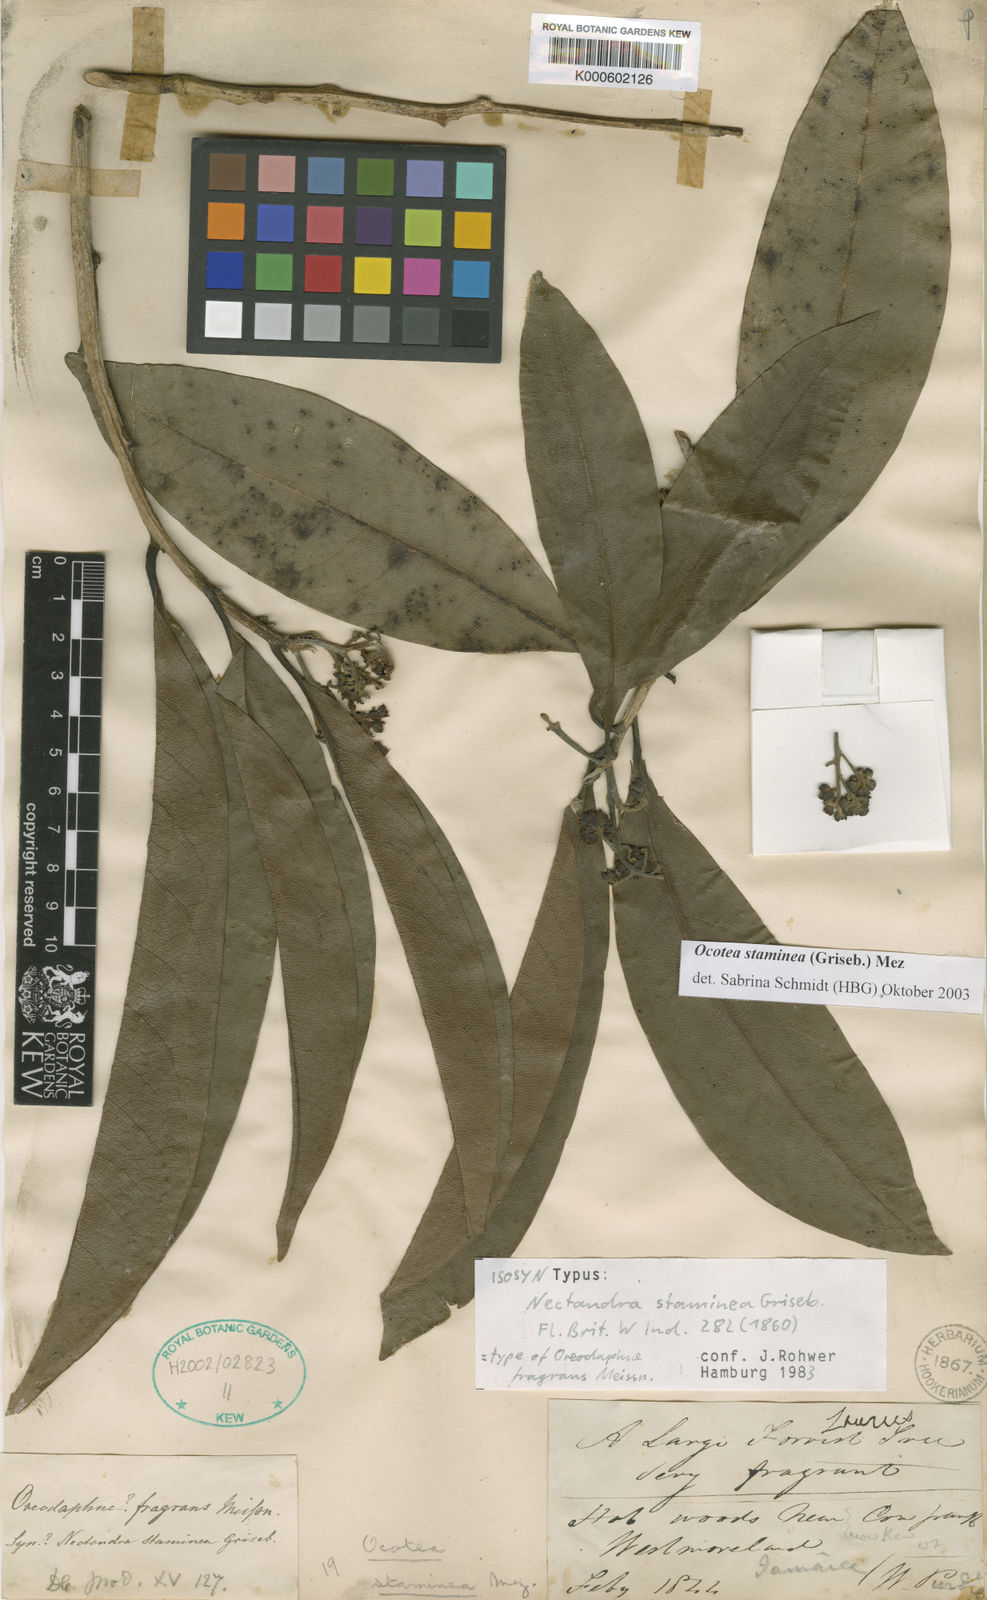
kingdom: Plantae
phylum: Tracheophyta
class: Magnoliopsida
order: Laurales
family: Lauraceae
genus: Mespilodaphne
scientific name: Mespilodaphne staminea
